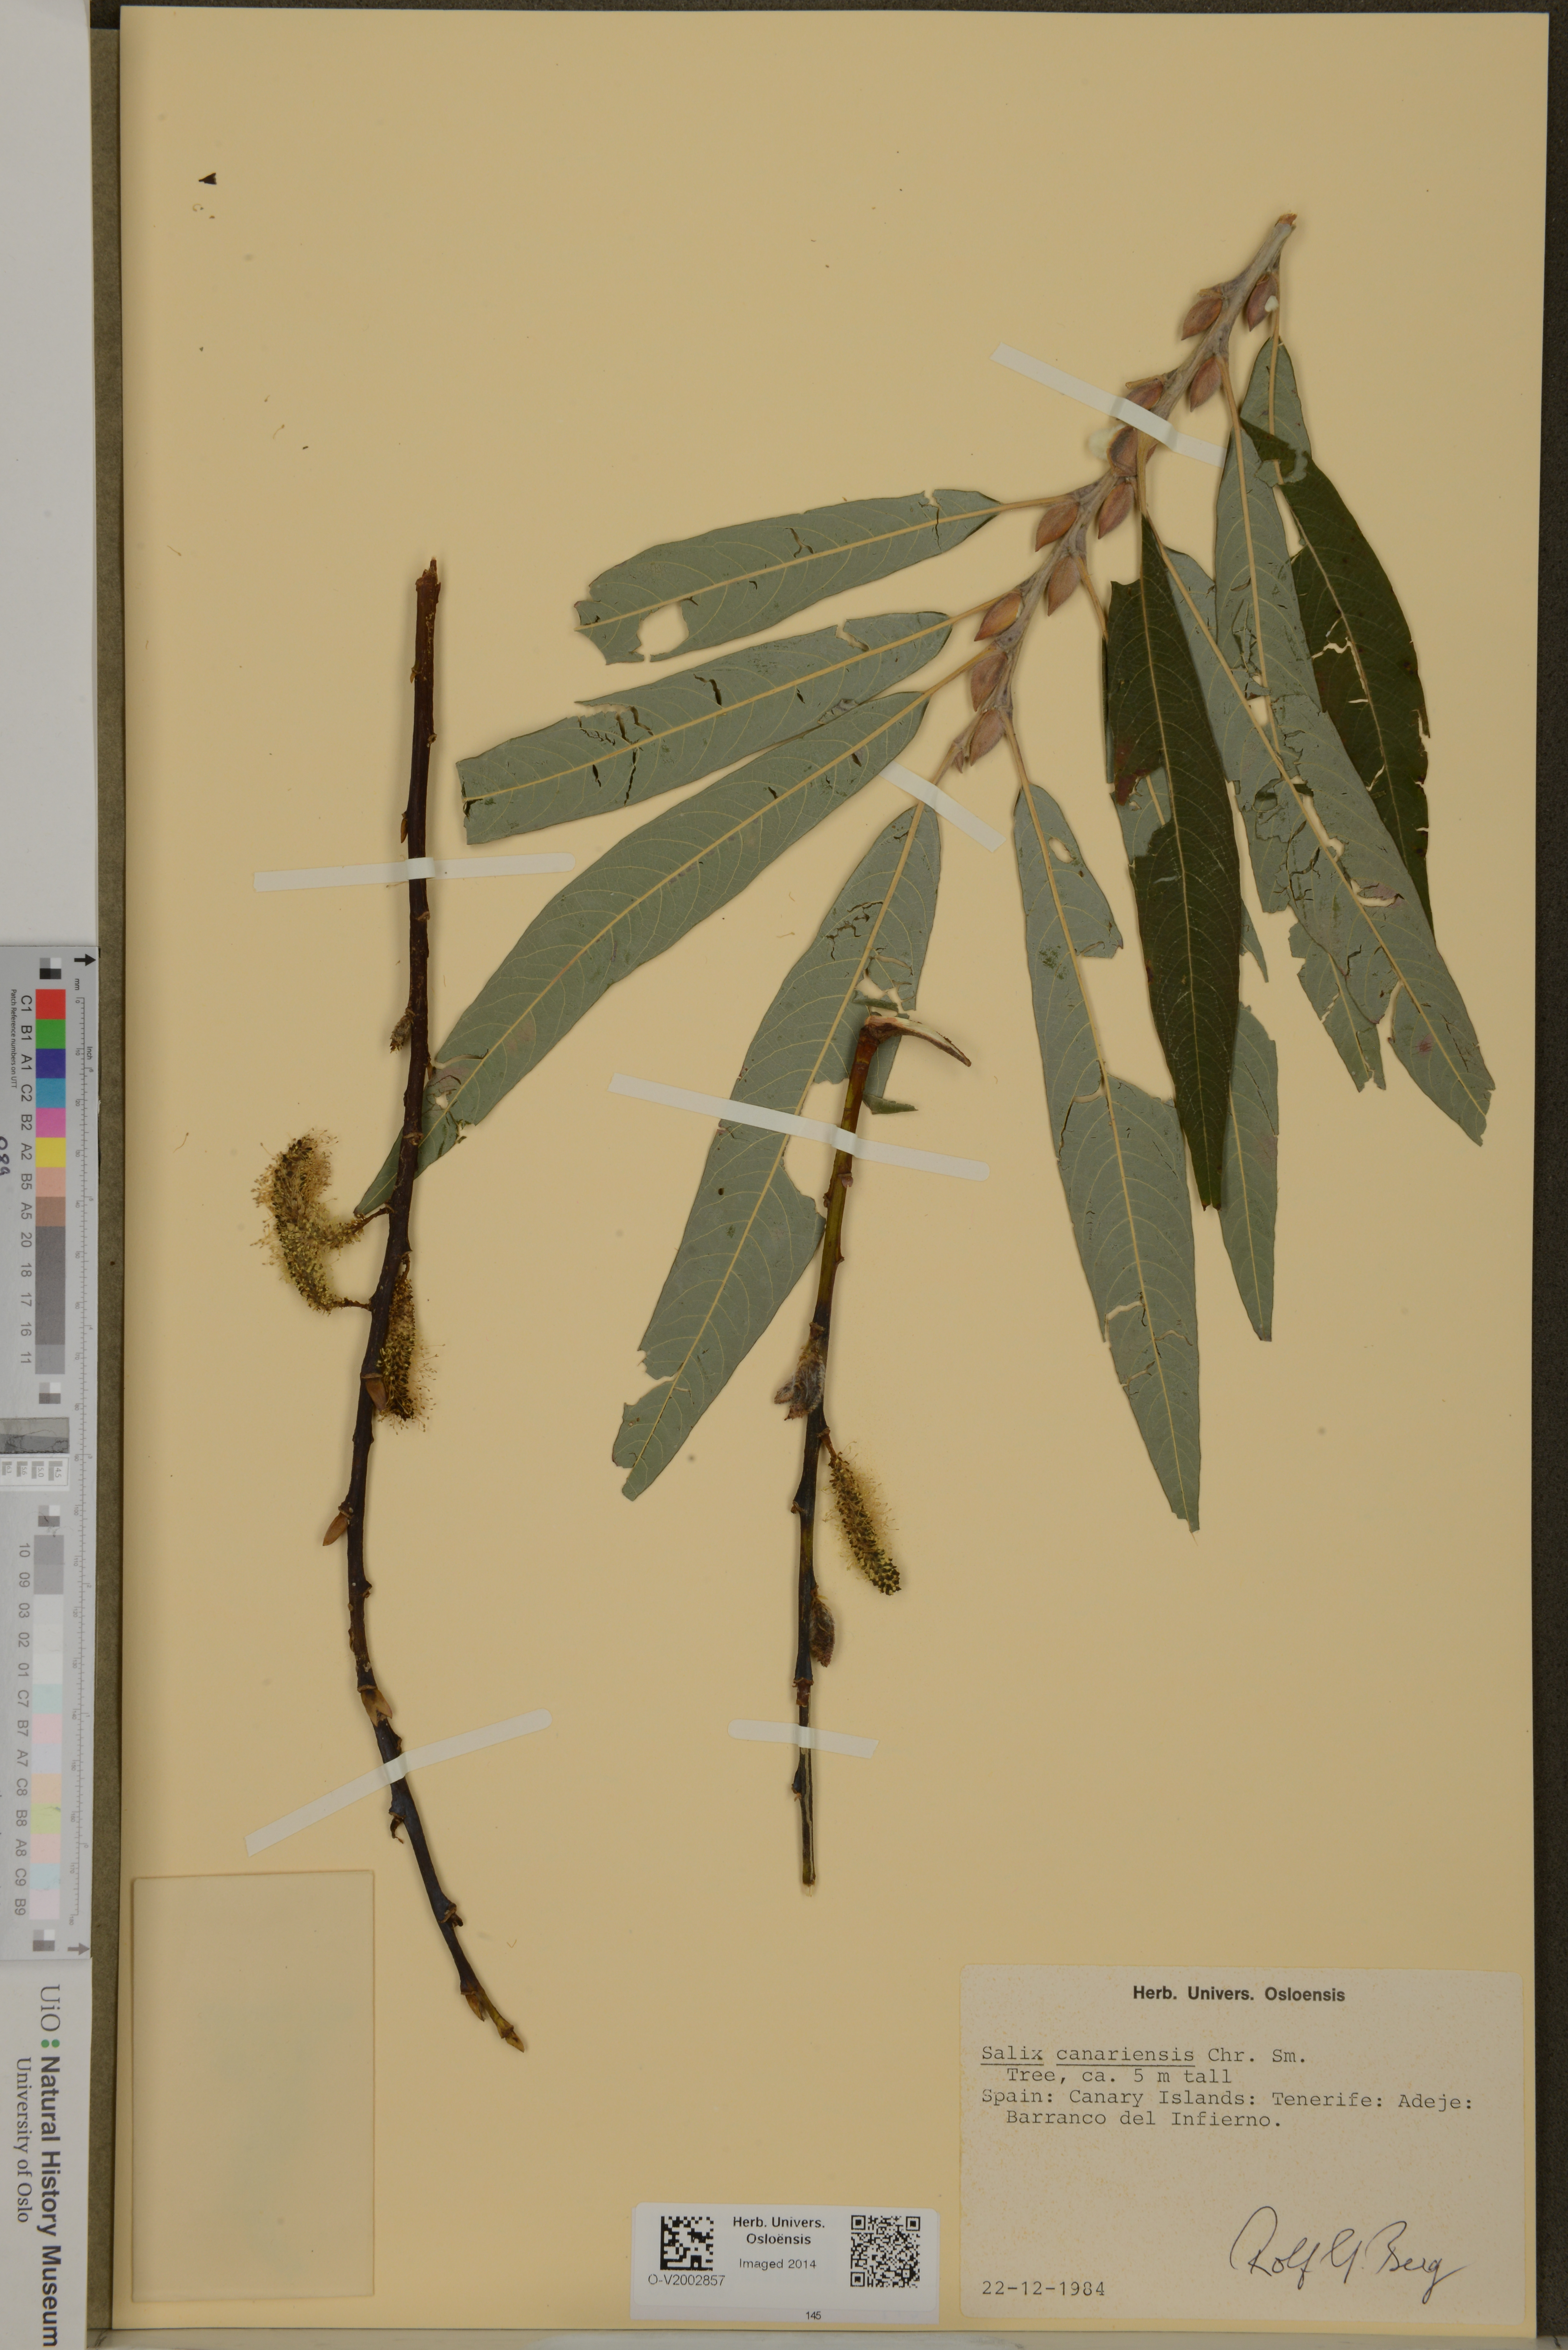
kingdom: Plantae
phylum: Tracheophyta
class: Magnoliopsida
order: Malpighiales
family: Salicaceae
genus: Salix
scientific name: Salix canariensis
